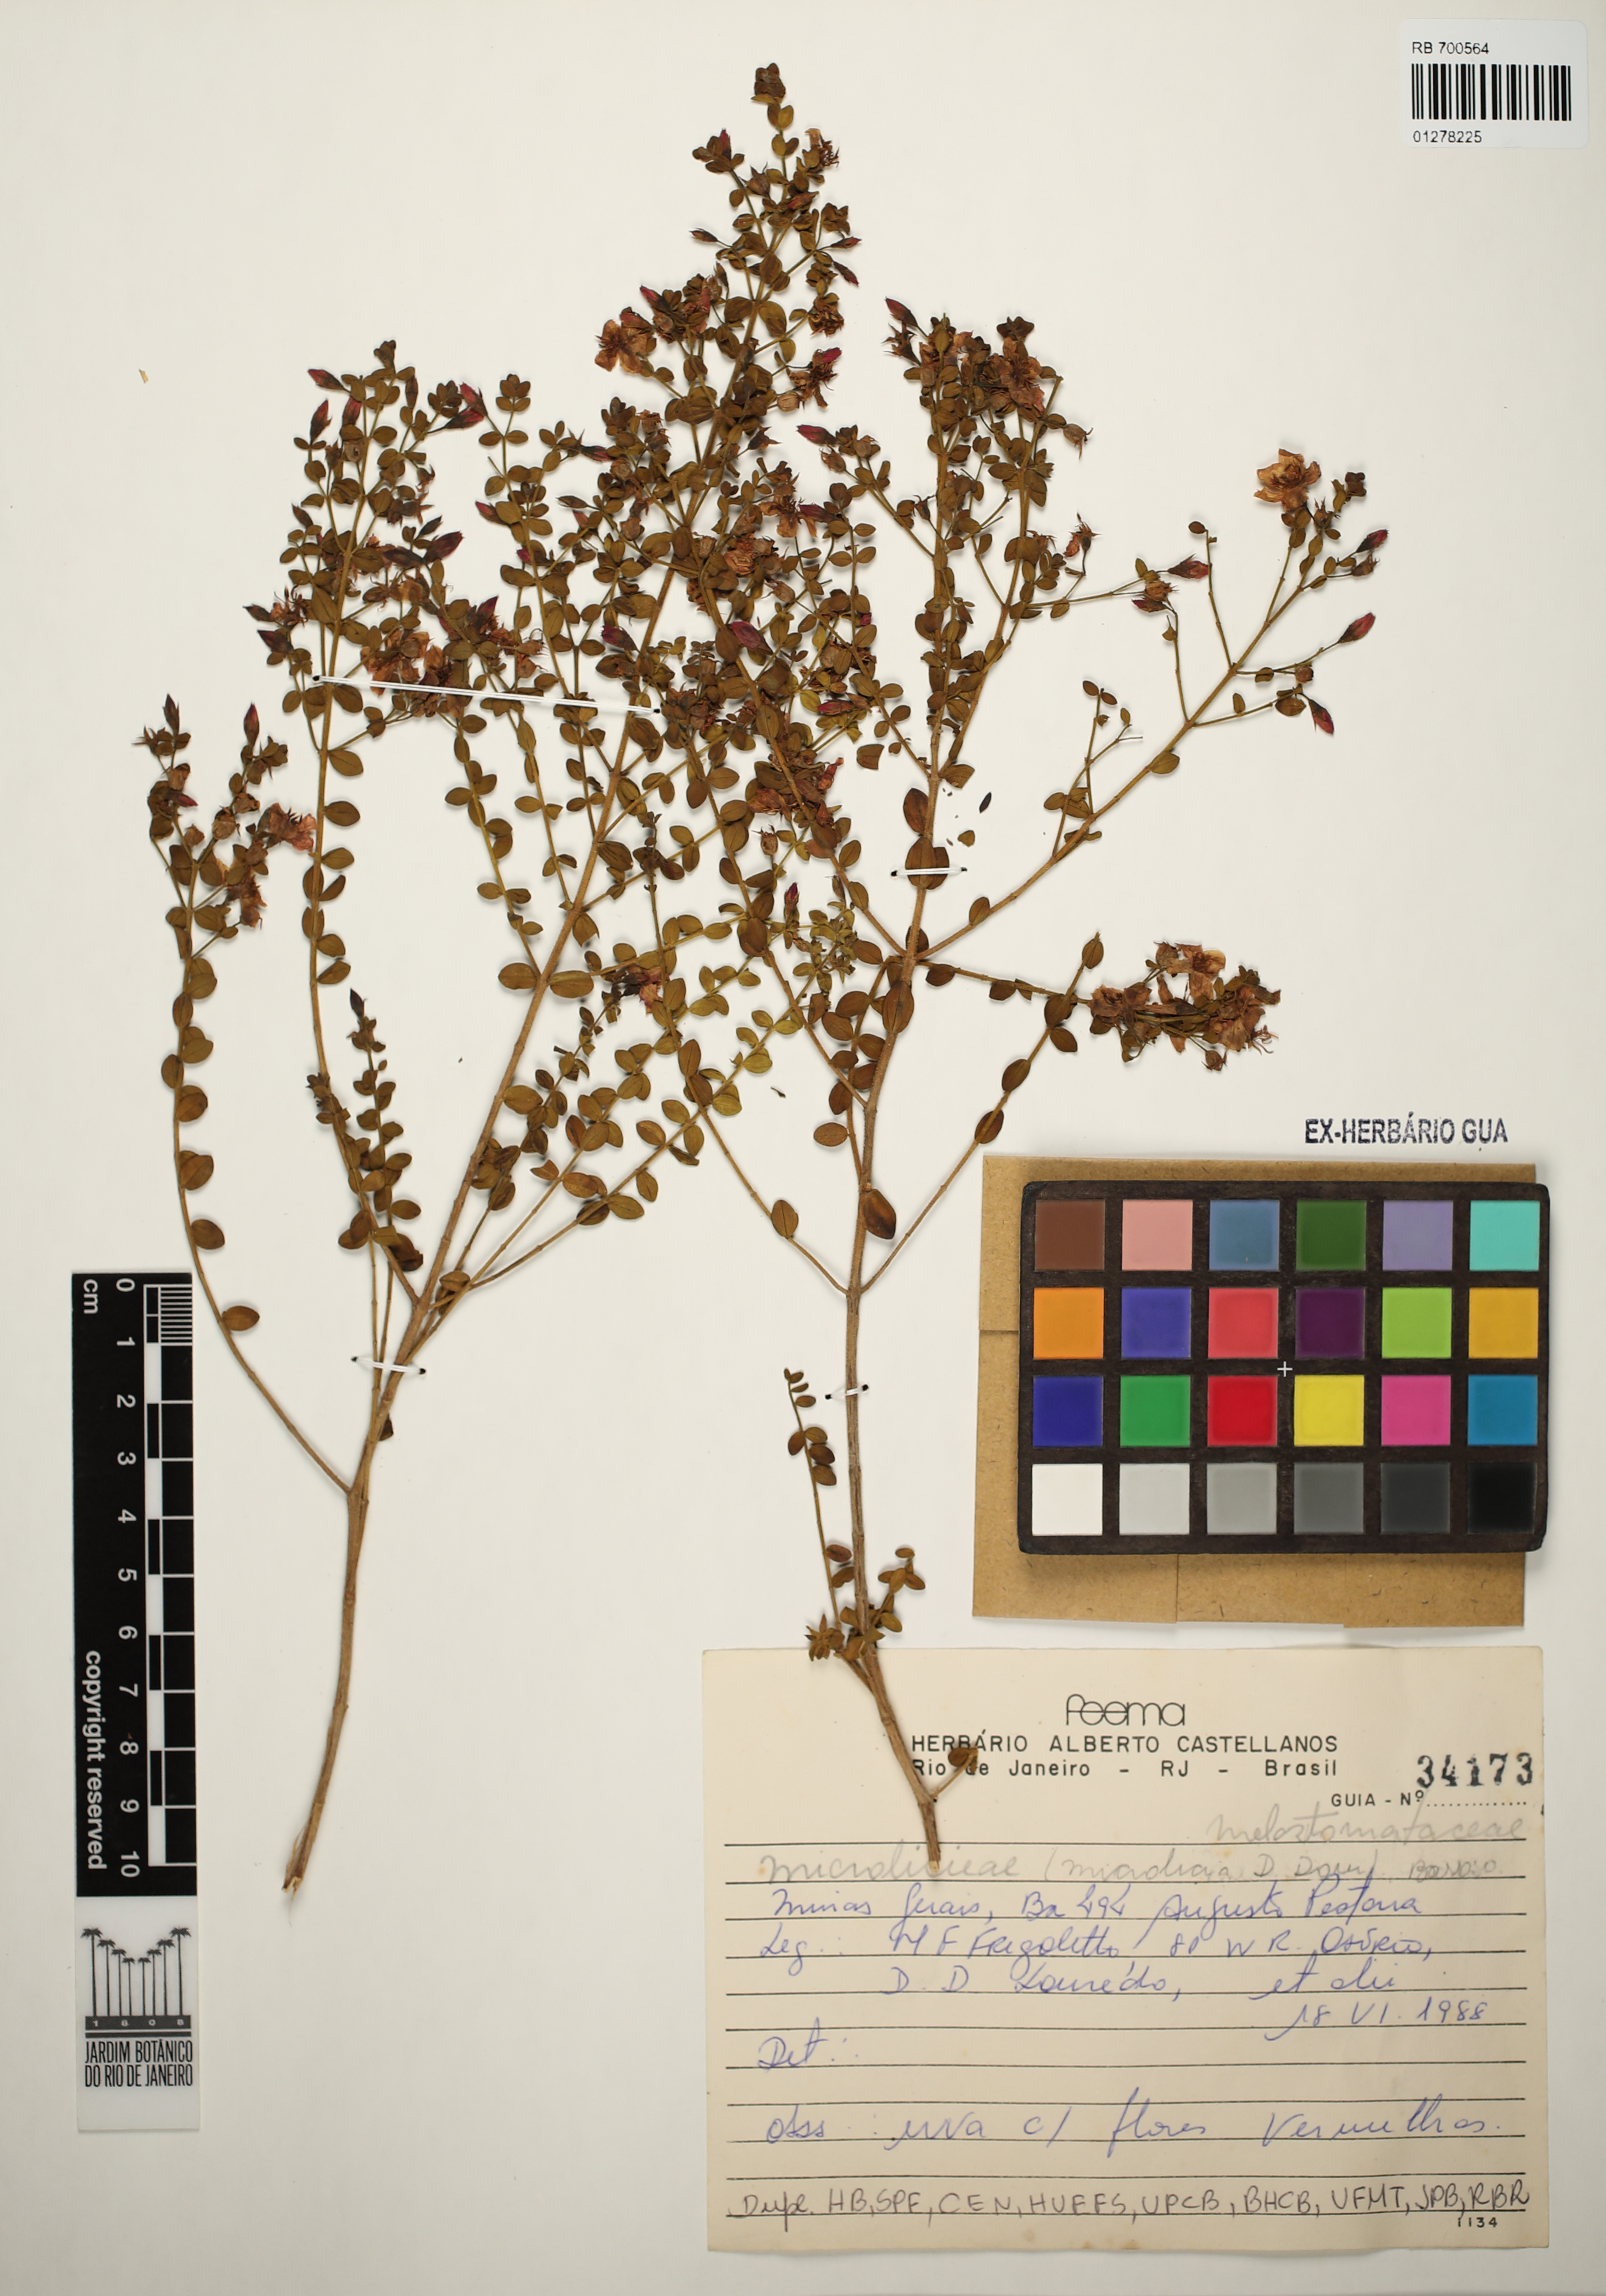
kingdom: Plantae
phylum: Tracheophyta
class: Magnoliopsida
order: Myrtales
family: Melastomataceae
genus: Microlicia
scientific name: Microlicia
